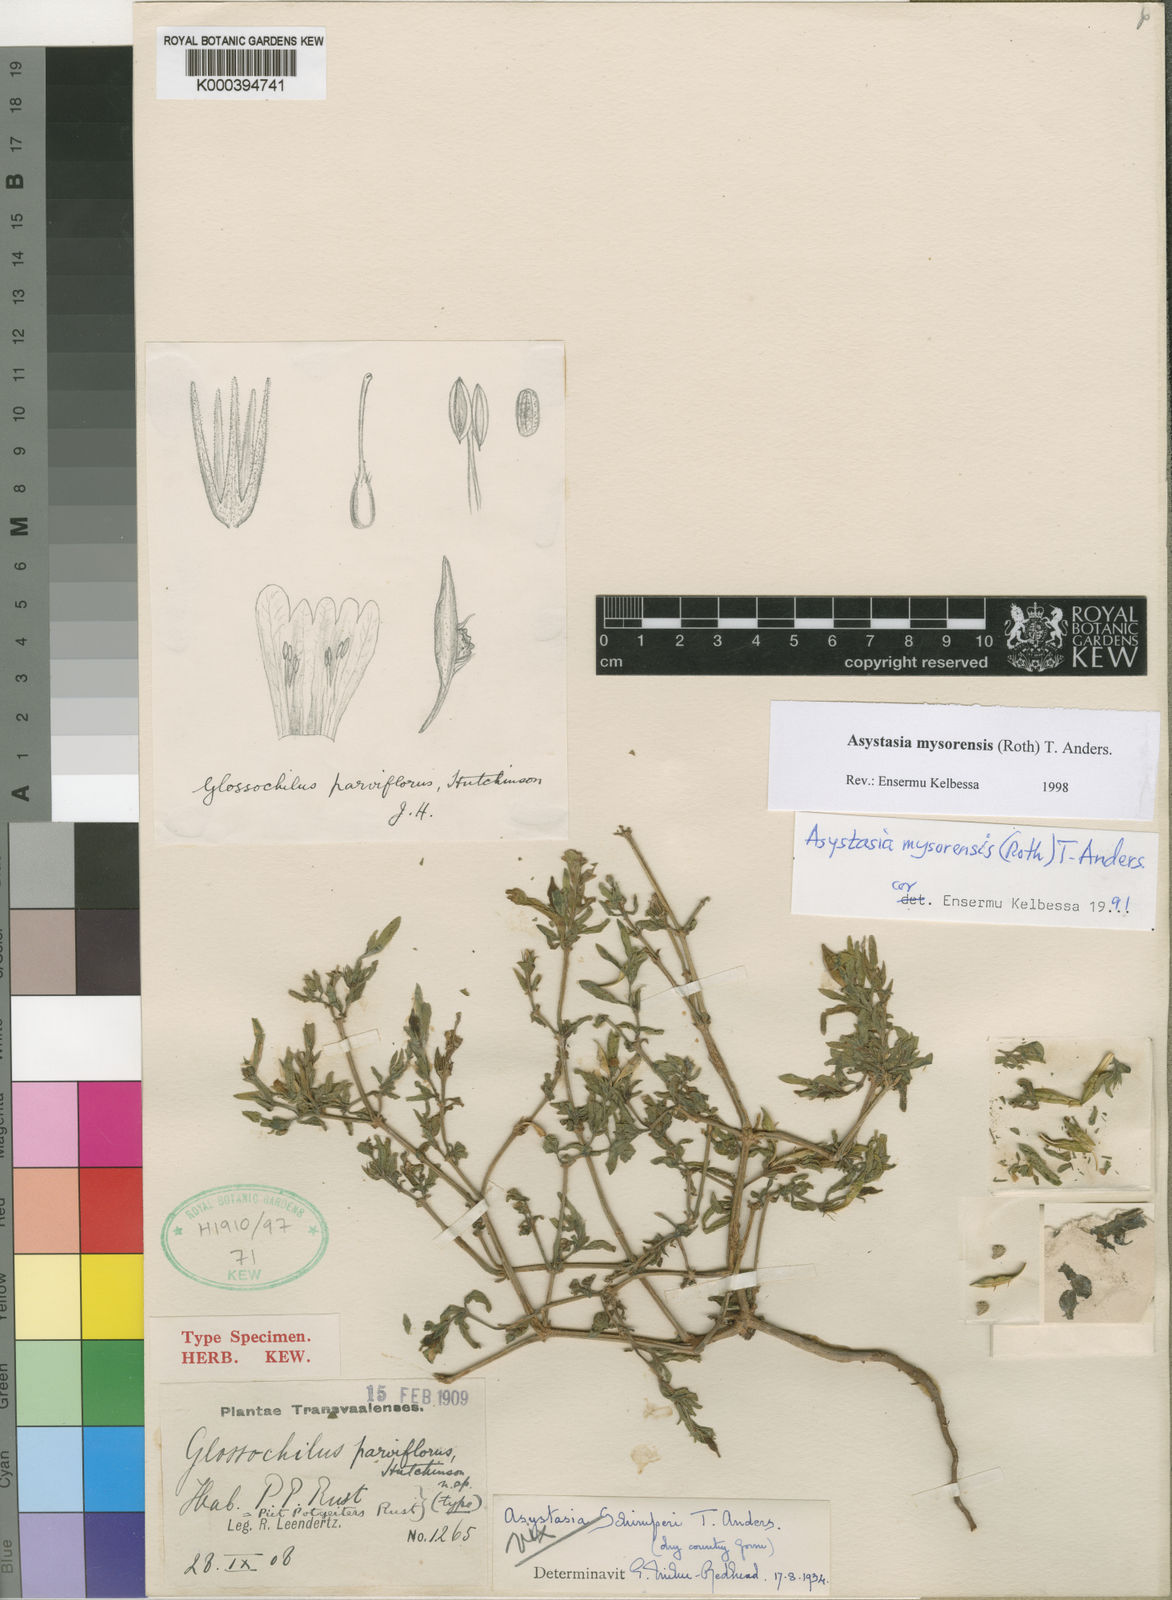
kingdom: Plantae
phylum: Tracheophyta
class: Magnoliopsida
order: Lamiales
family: Acanthaceae
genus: Asystasia
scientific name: Asystasia mysorensis
